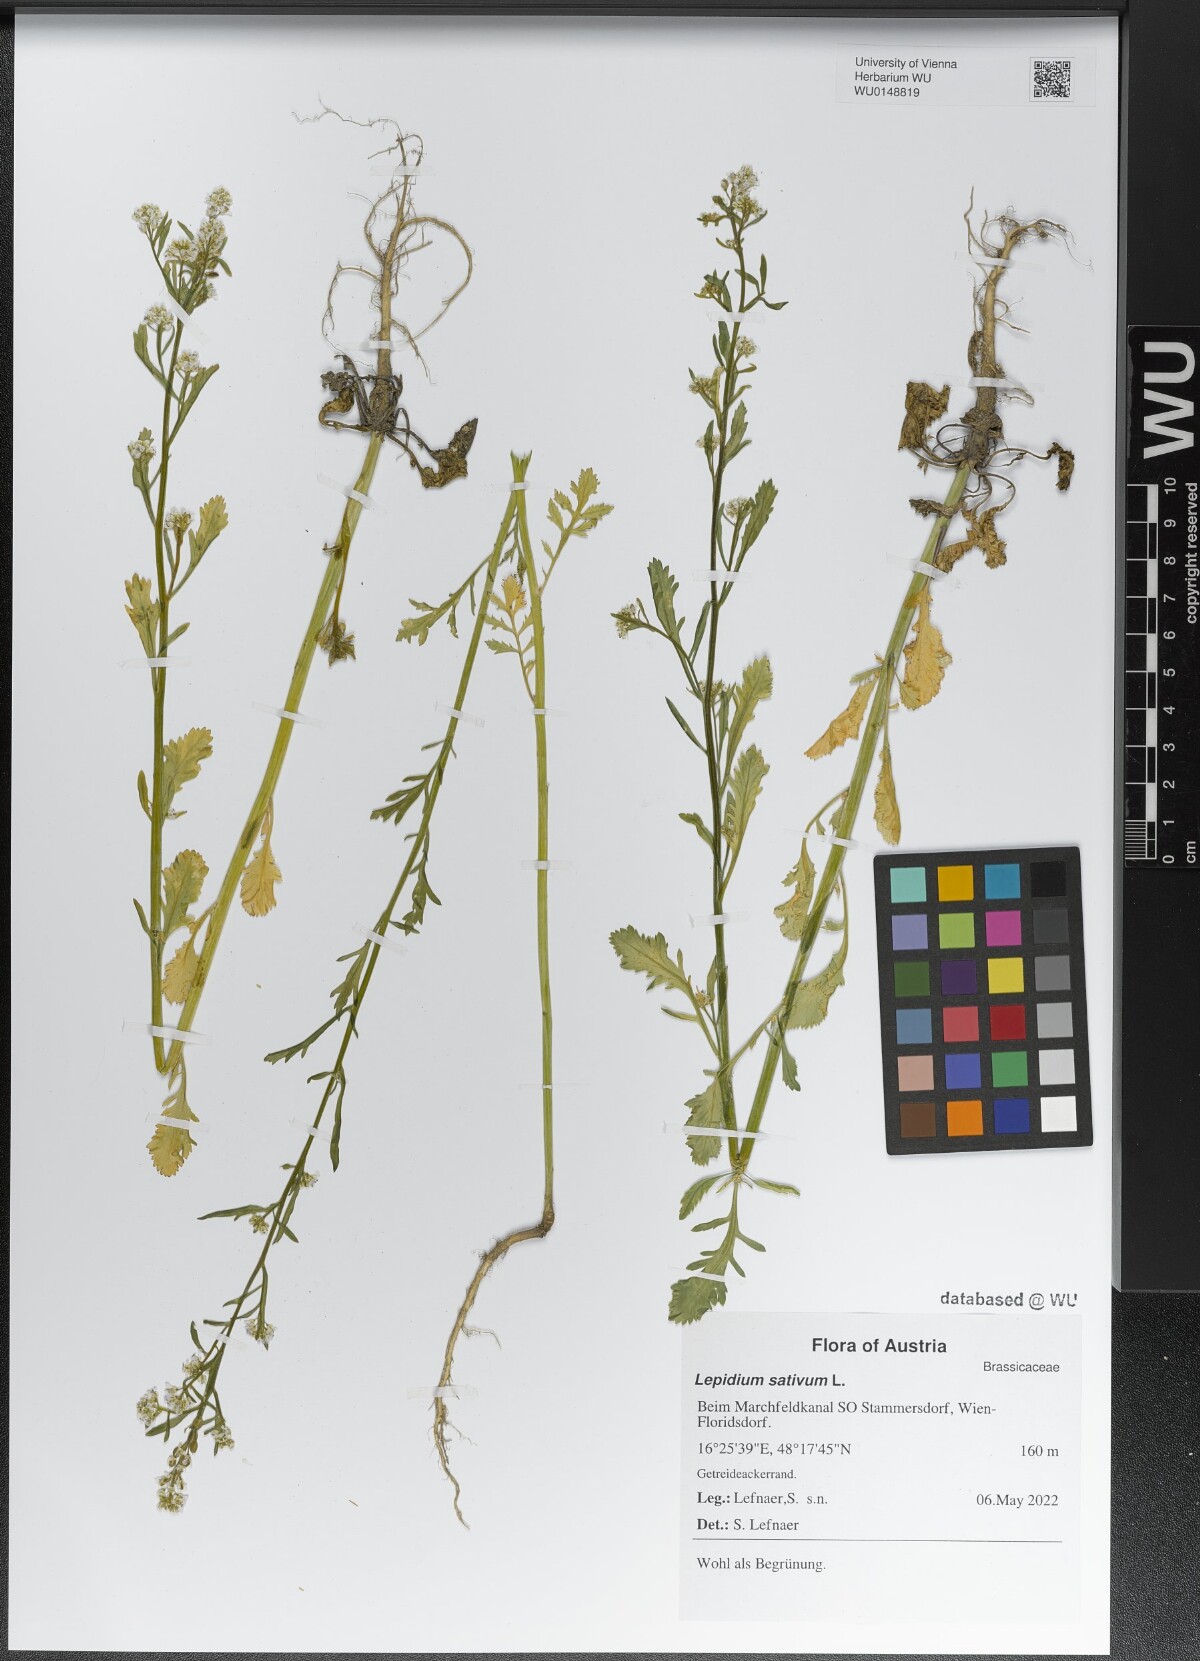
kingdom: Plantae
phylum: Tracheophyta
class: Magnoliopsida
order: Brassicales
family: Brassicaceae
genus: Lepidium
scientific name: Lepidium sativum
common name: Garden cress
